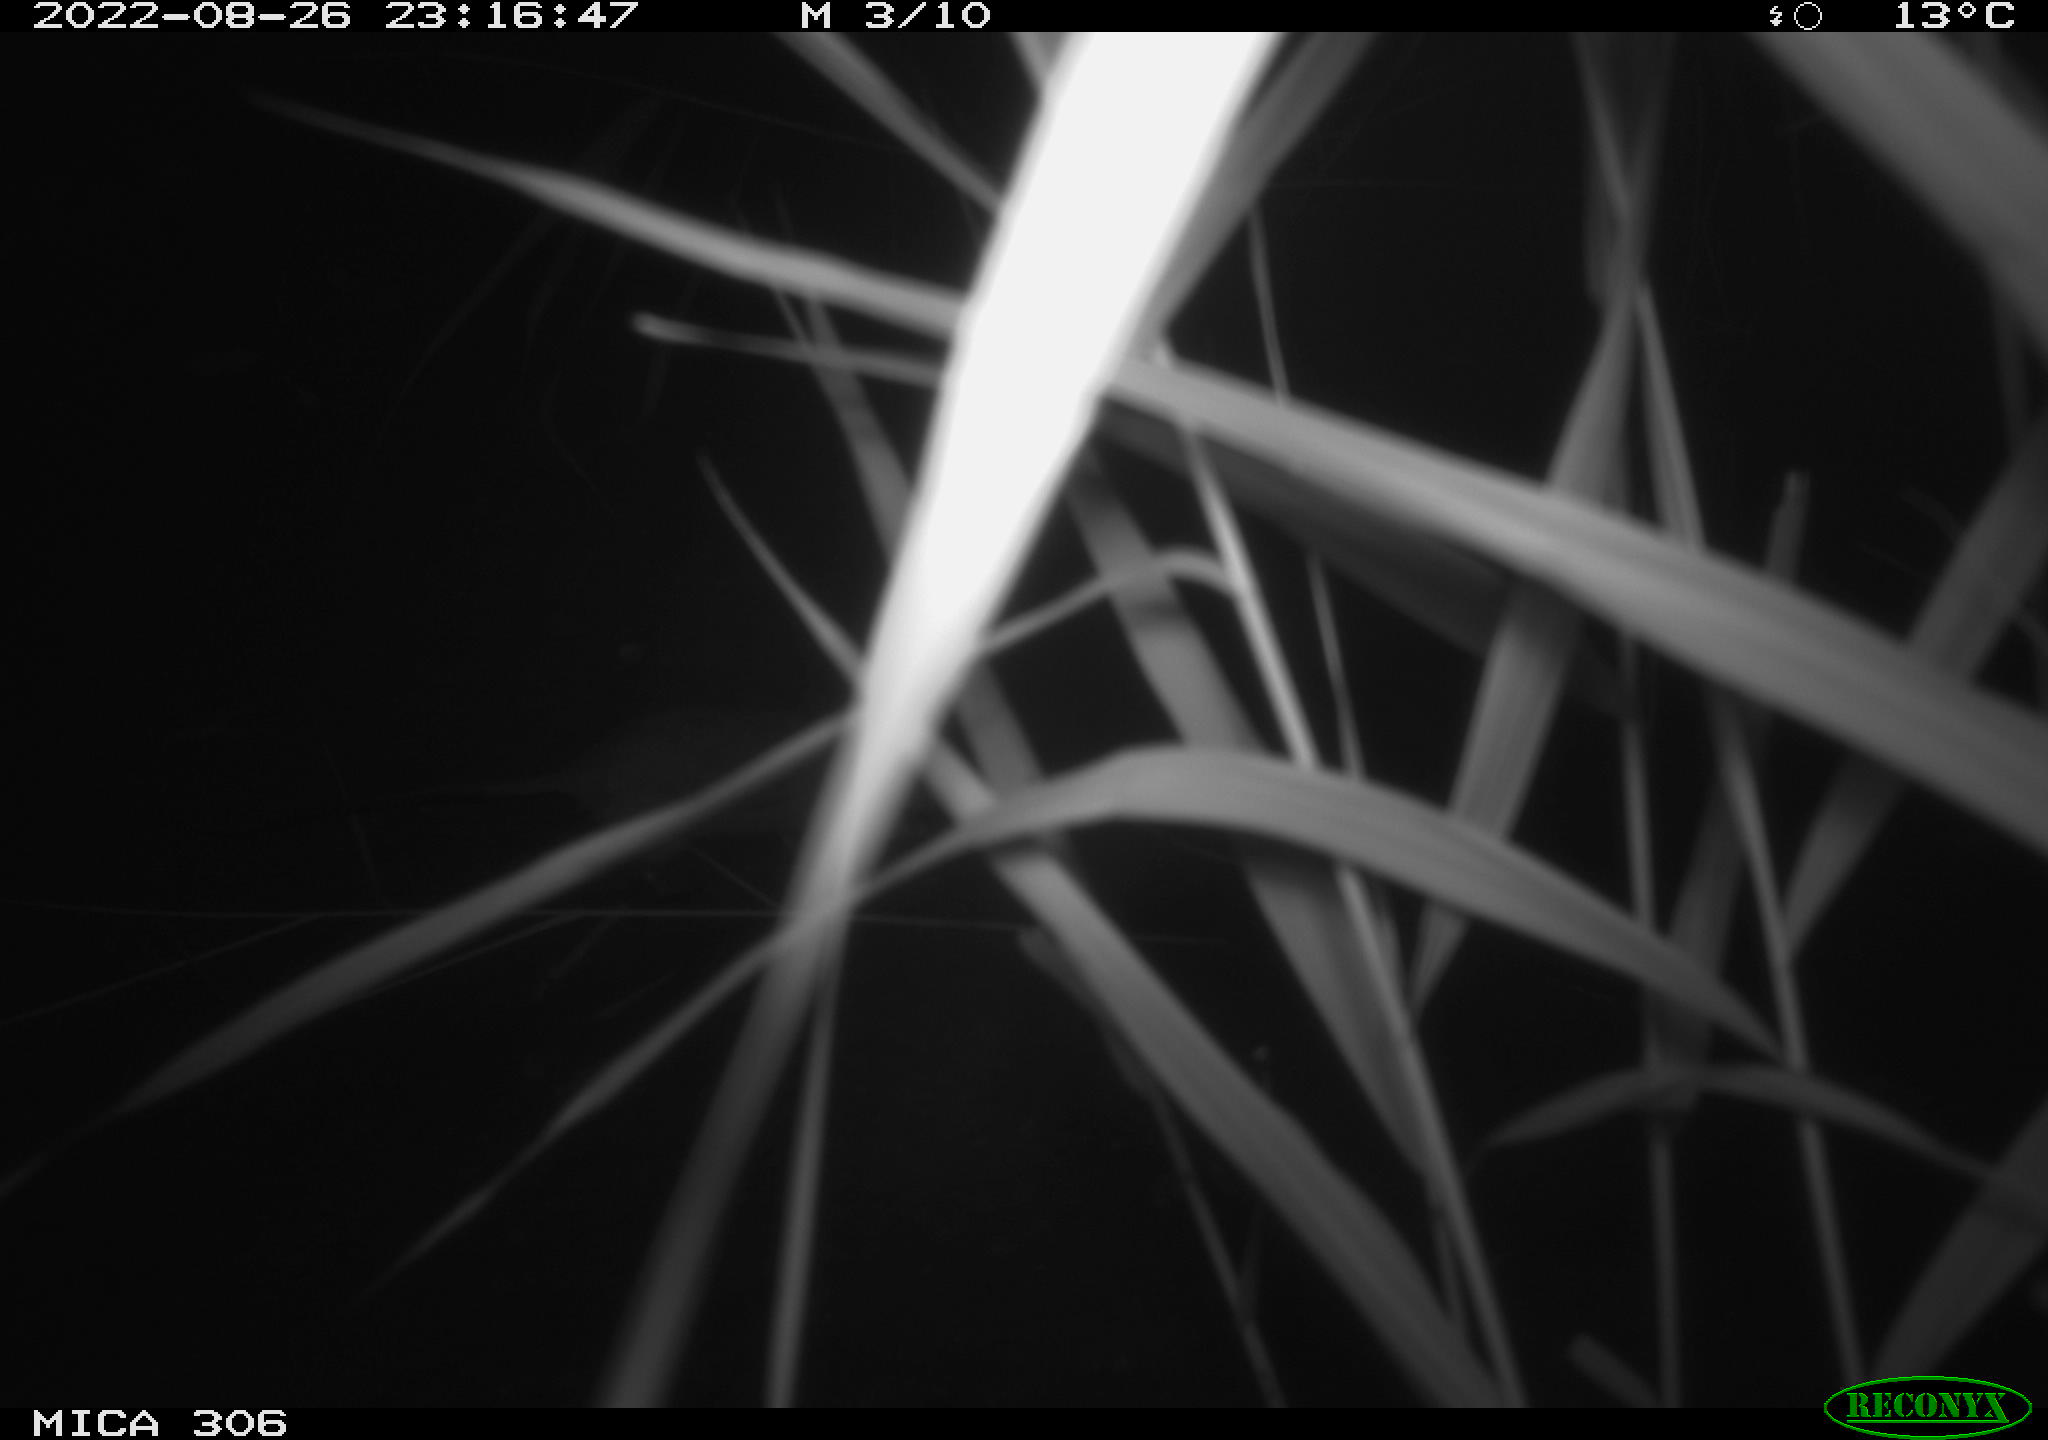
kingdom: Animalia
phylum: Chordata
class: Mammalia
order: Rodentia
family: Muridae
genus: Rattus
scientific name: Rattus norvegicus
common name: Brown rat
